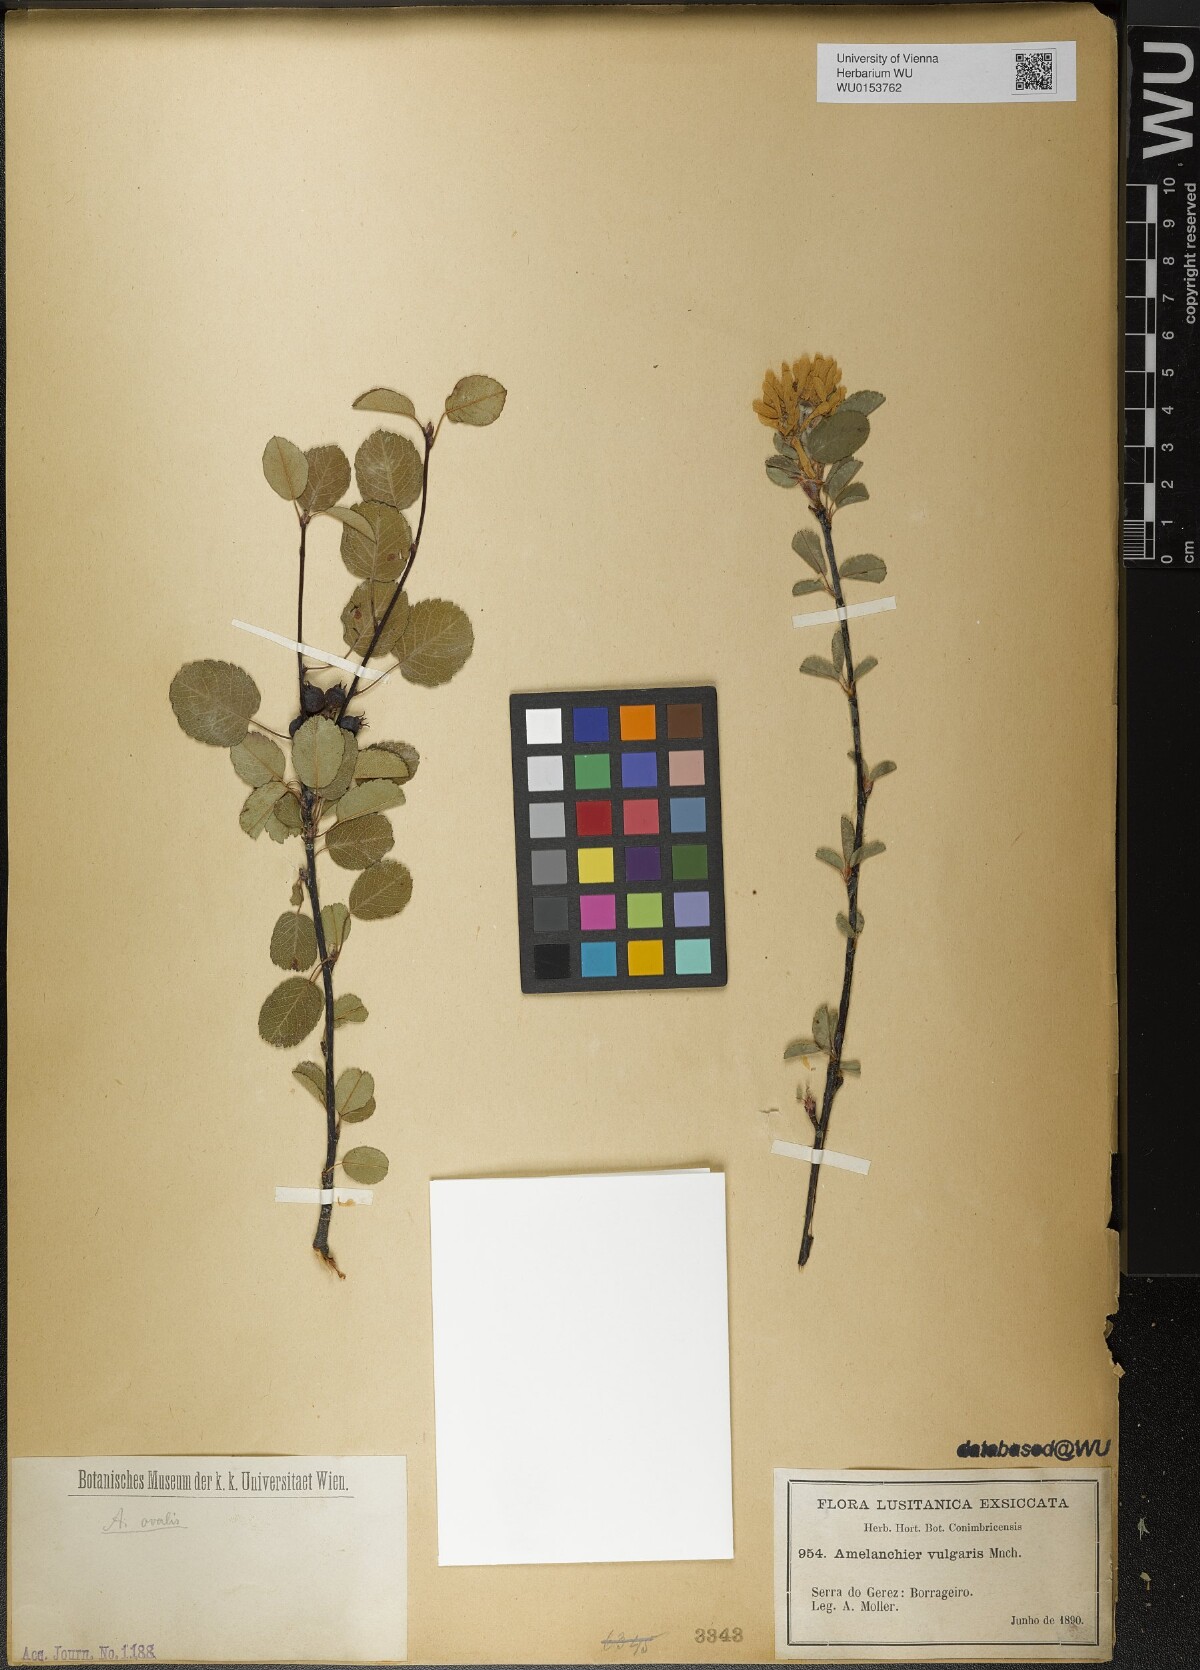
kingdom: Plantae
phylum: Tracheophyta
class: Magnoliopsida
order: Rosales
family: Rosaceae
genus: Amelanchier
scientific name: Amelanchier ovalis
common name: Serviceberry
